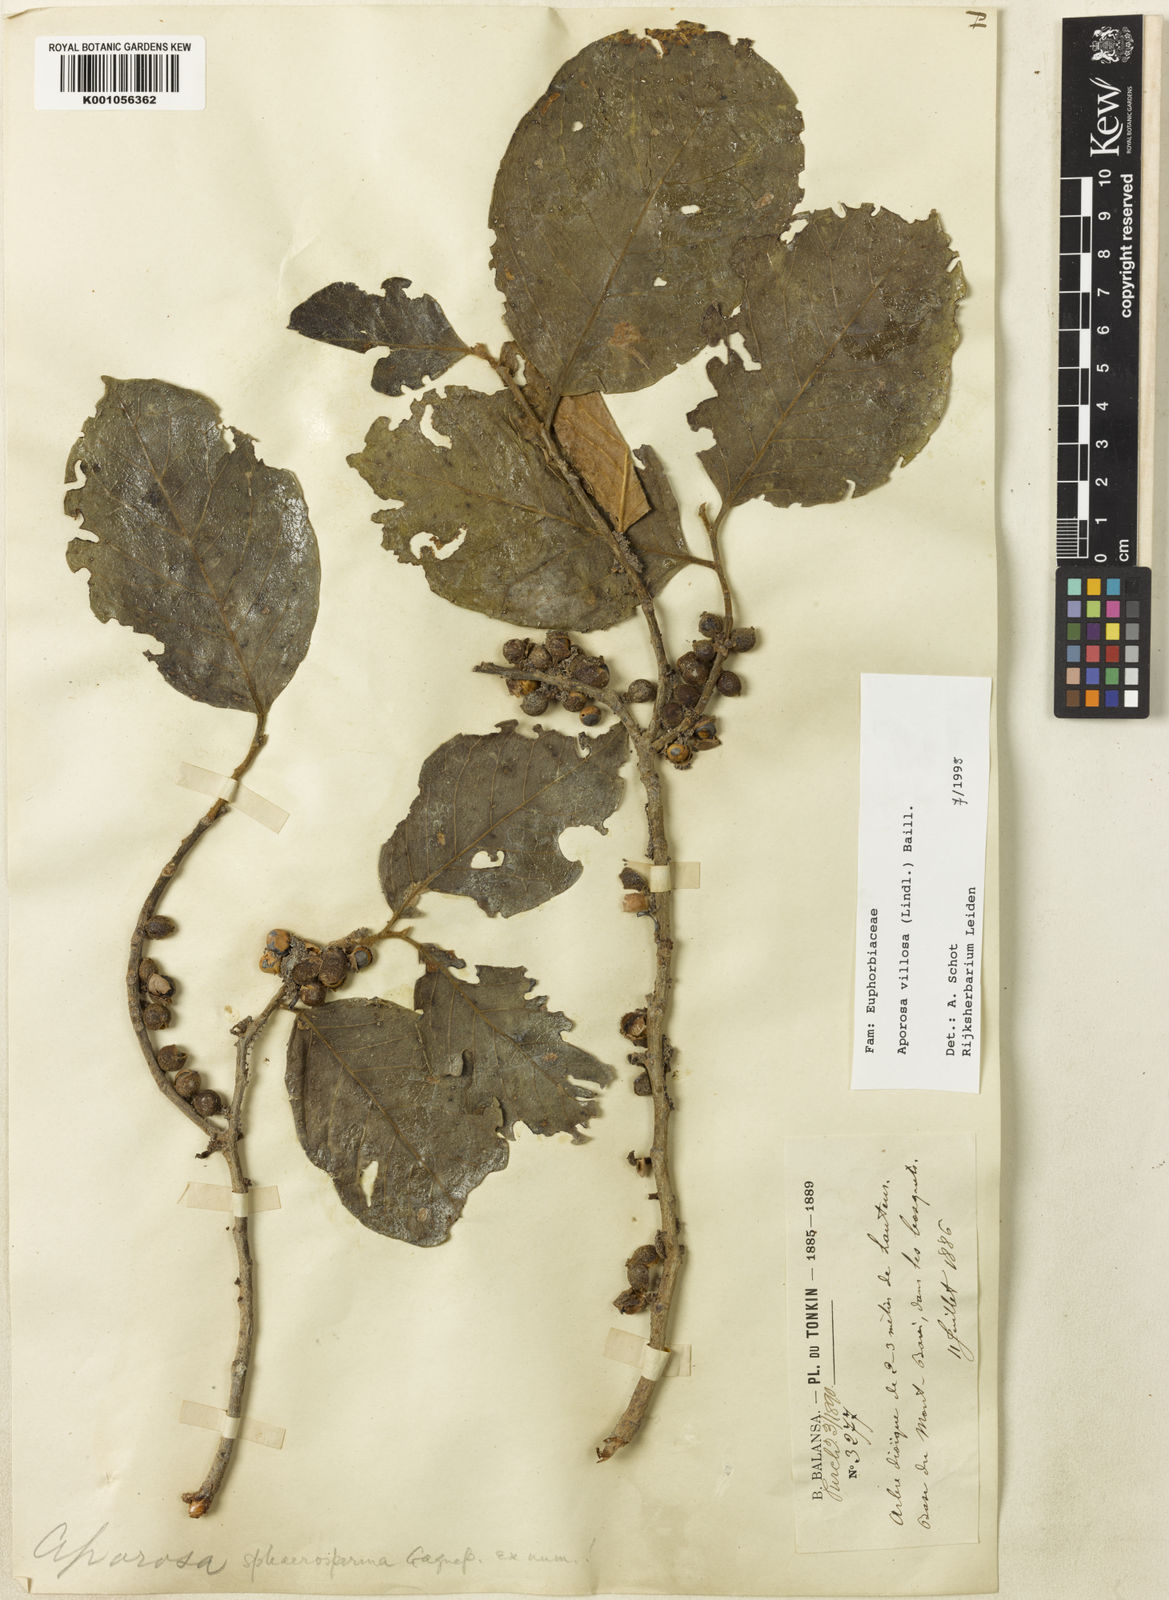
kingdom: Plantae
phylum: Tracheophyta
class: Magnoliopsida
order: Malpighiales
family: Phyllanthaceae
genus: Aporosa
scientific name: Aporosa villosa
